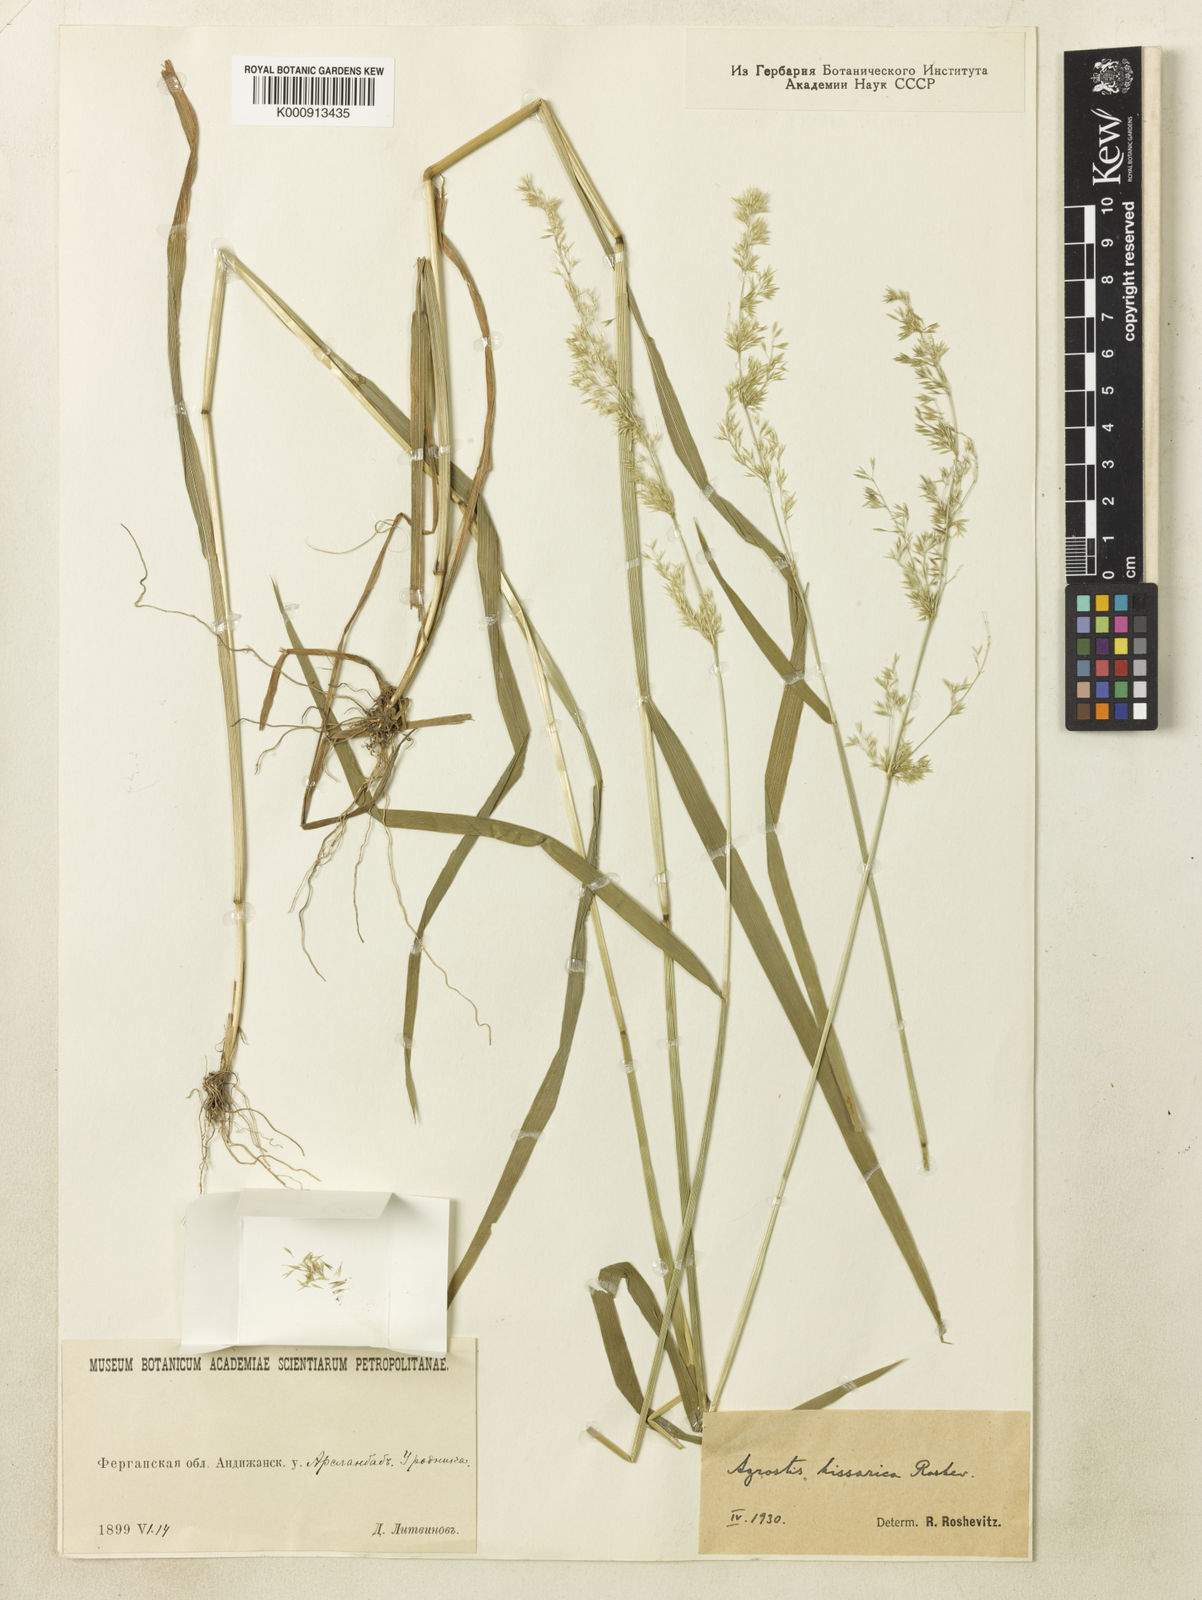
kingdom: Plantae
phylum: Tracheophyta
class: Liliopsida
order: Poales
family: Poaceae
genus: Polypogon
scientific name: Polypogon hissaricus
